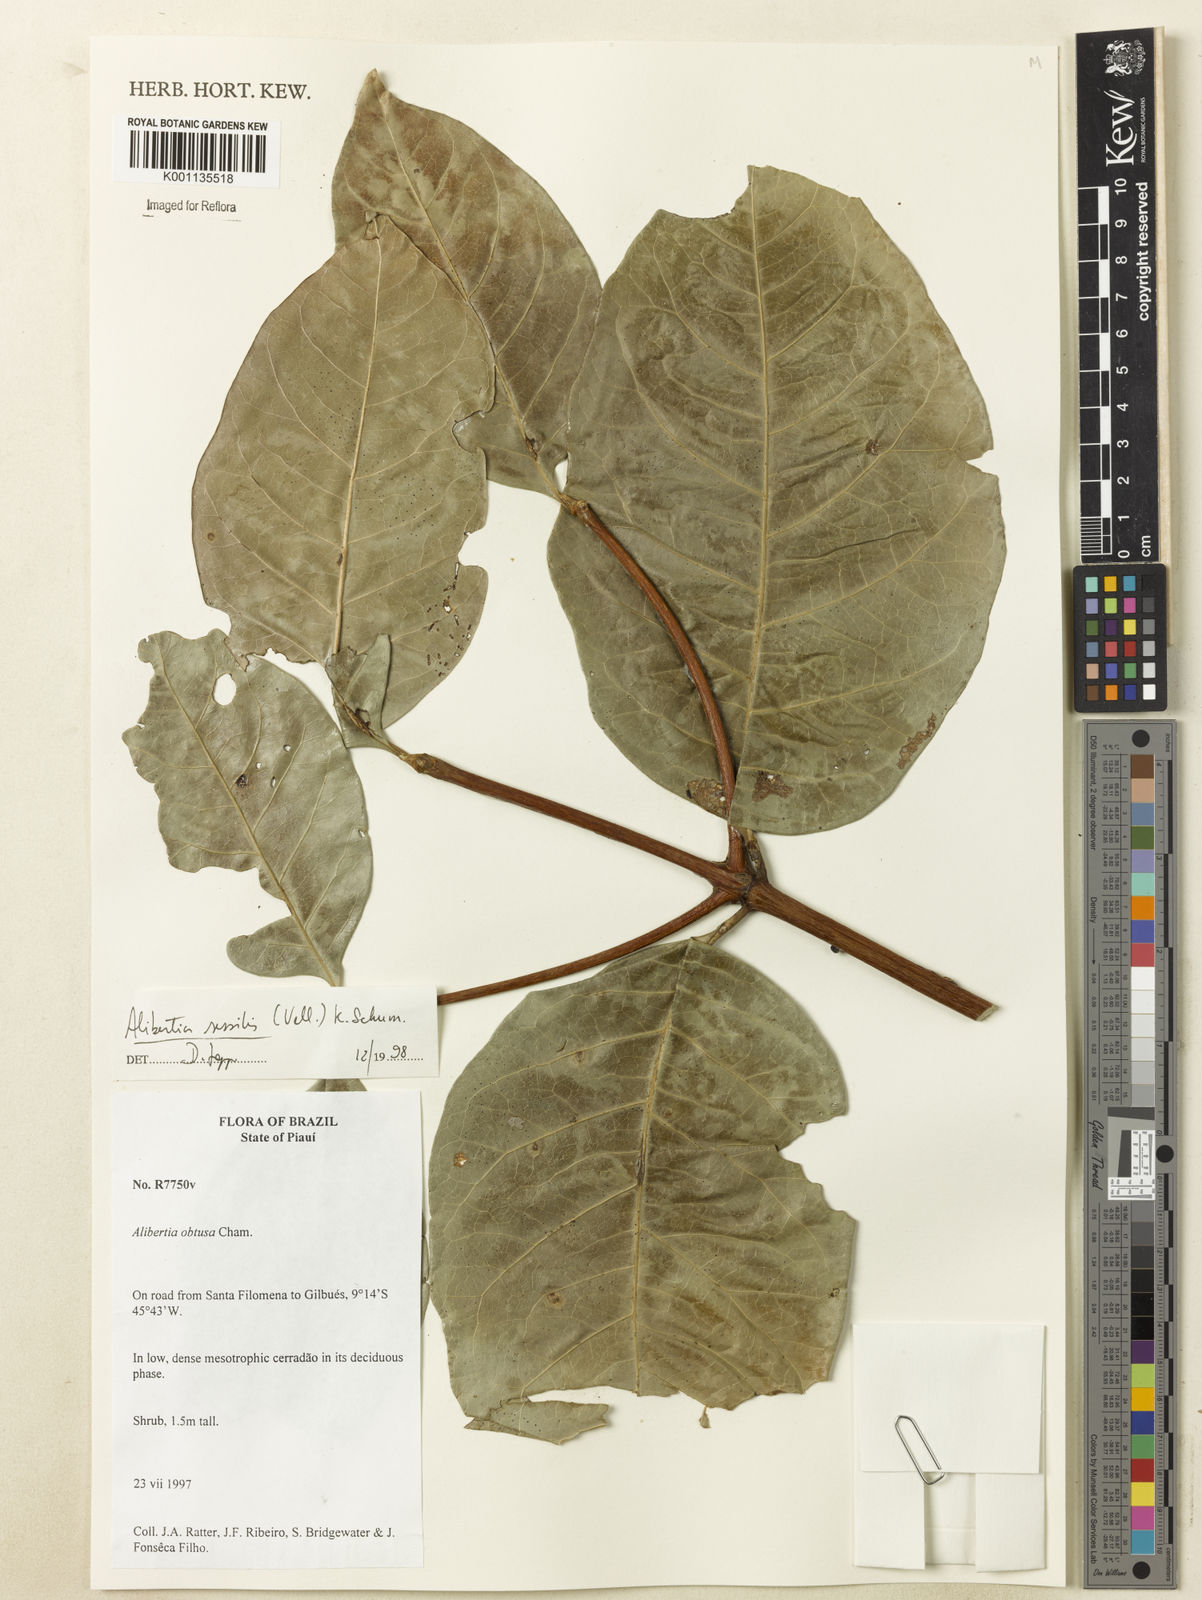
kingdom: Plantae
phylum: Tracheophyta
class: Magnoliopsida
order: Gentianales
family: Rubiaceae
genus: Cordiera
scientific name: Cordiera sessilis
